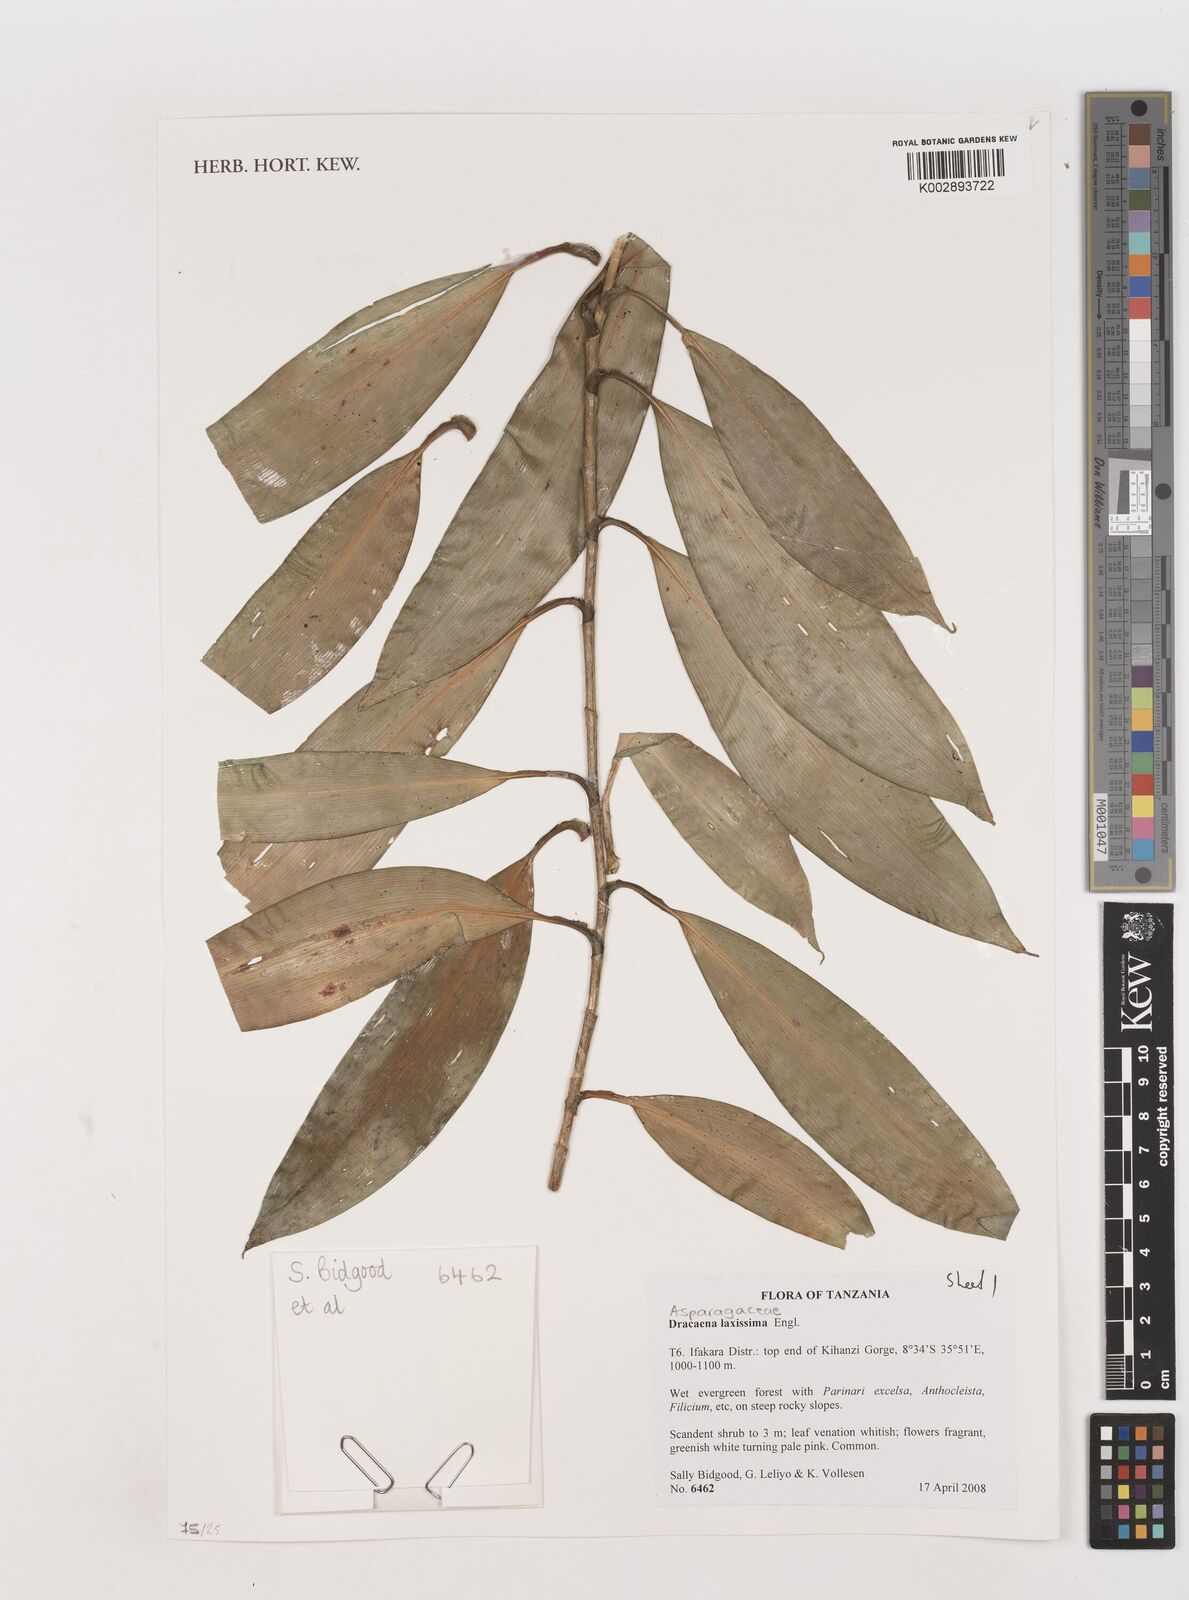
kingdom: Plantae
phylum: Tracheophyta
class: Liliopsida
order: Asparagales
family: Asparagaceae
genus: Dracaena
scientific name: Dracaena laxissima
